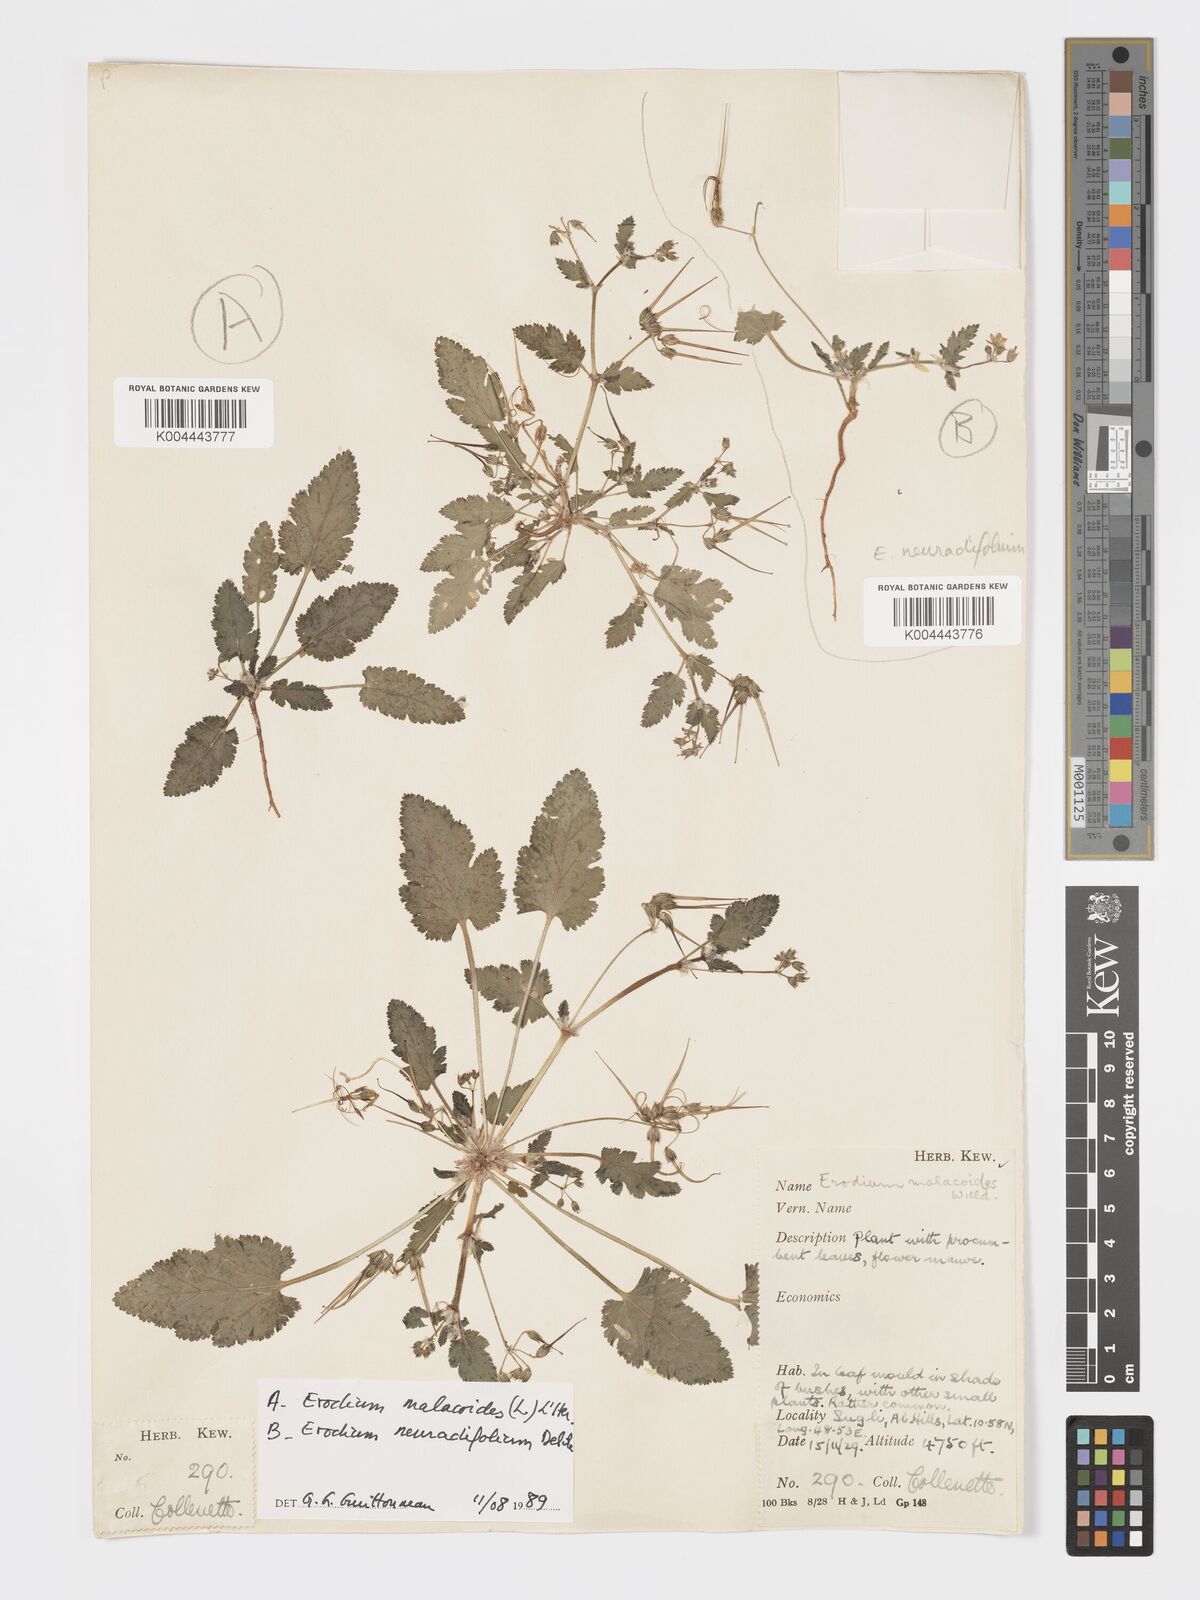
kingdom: Plantae
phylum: Tracheophyta
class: Magnoliopsida
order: Geraniales
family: Geraniaceae
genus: Erodium
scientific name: Erodium malacoides
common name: Soft stork's-bill
